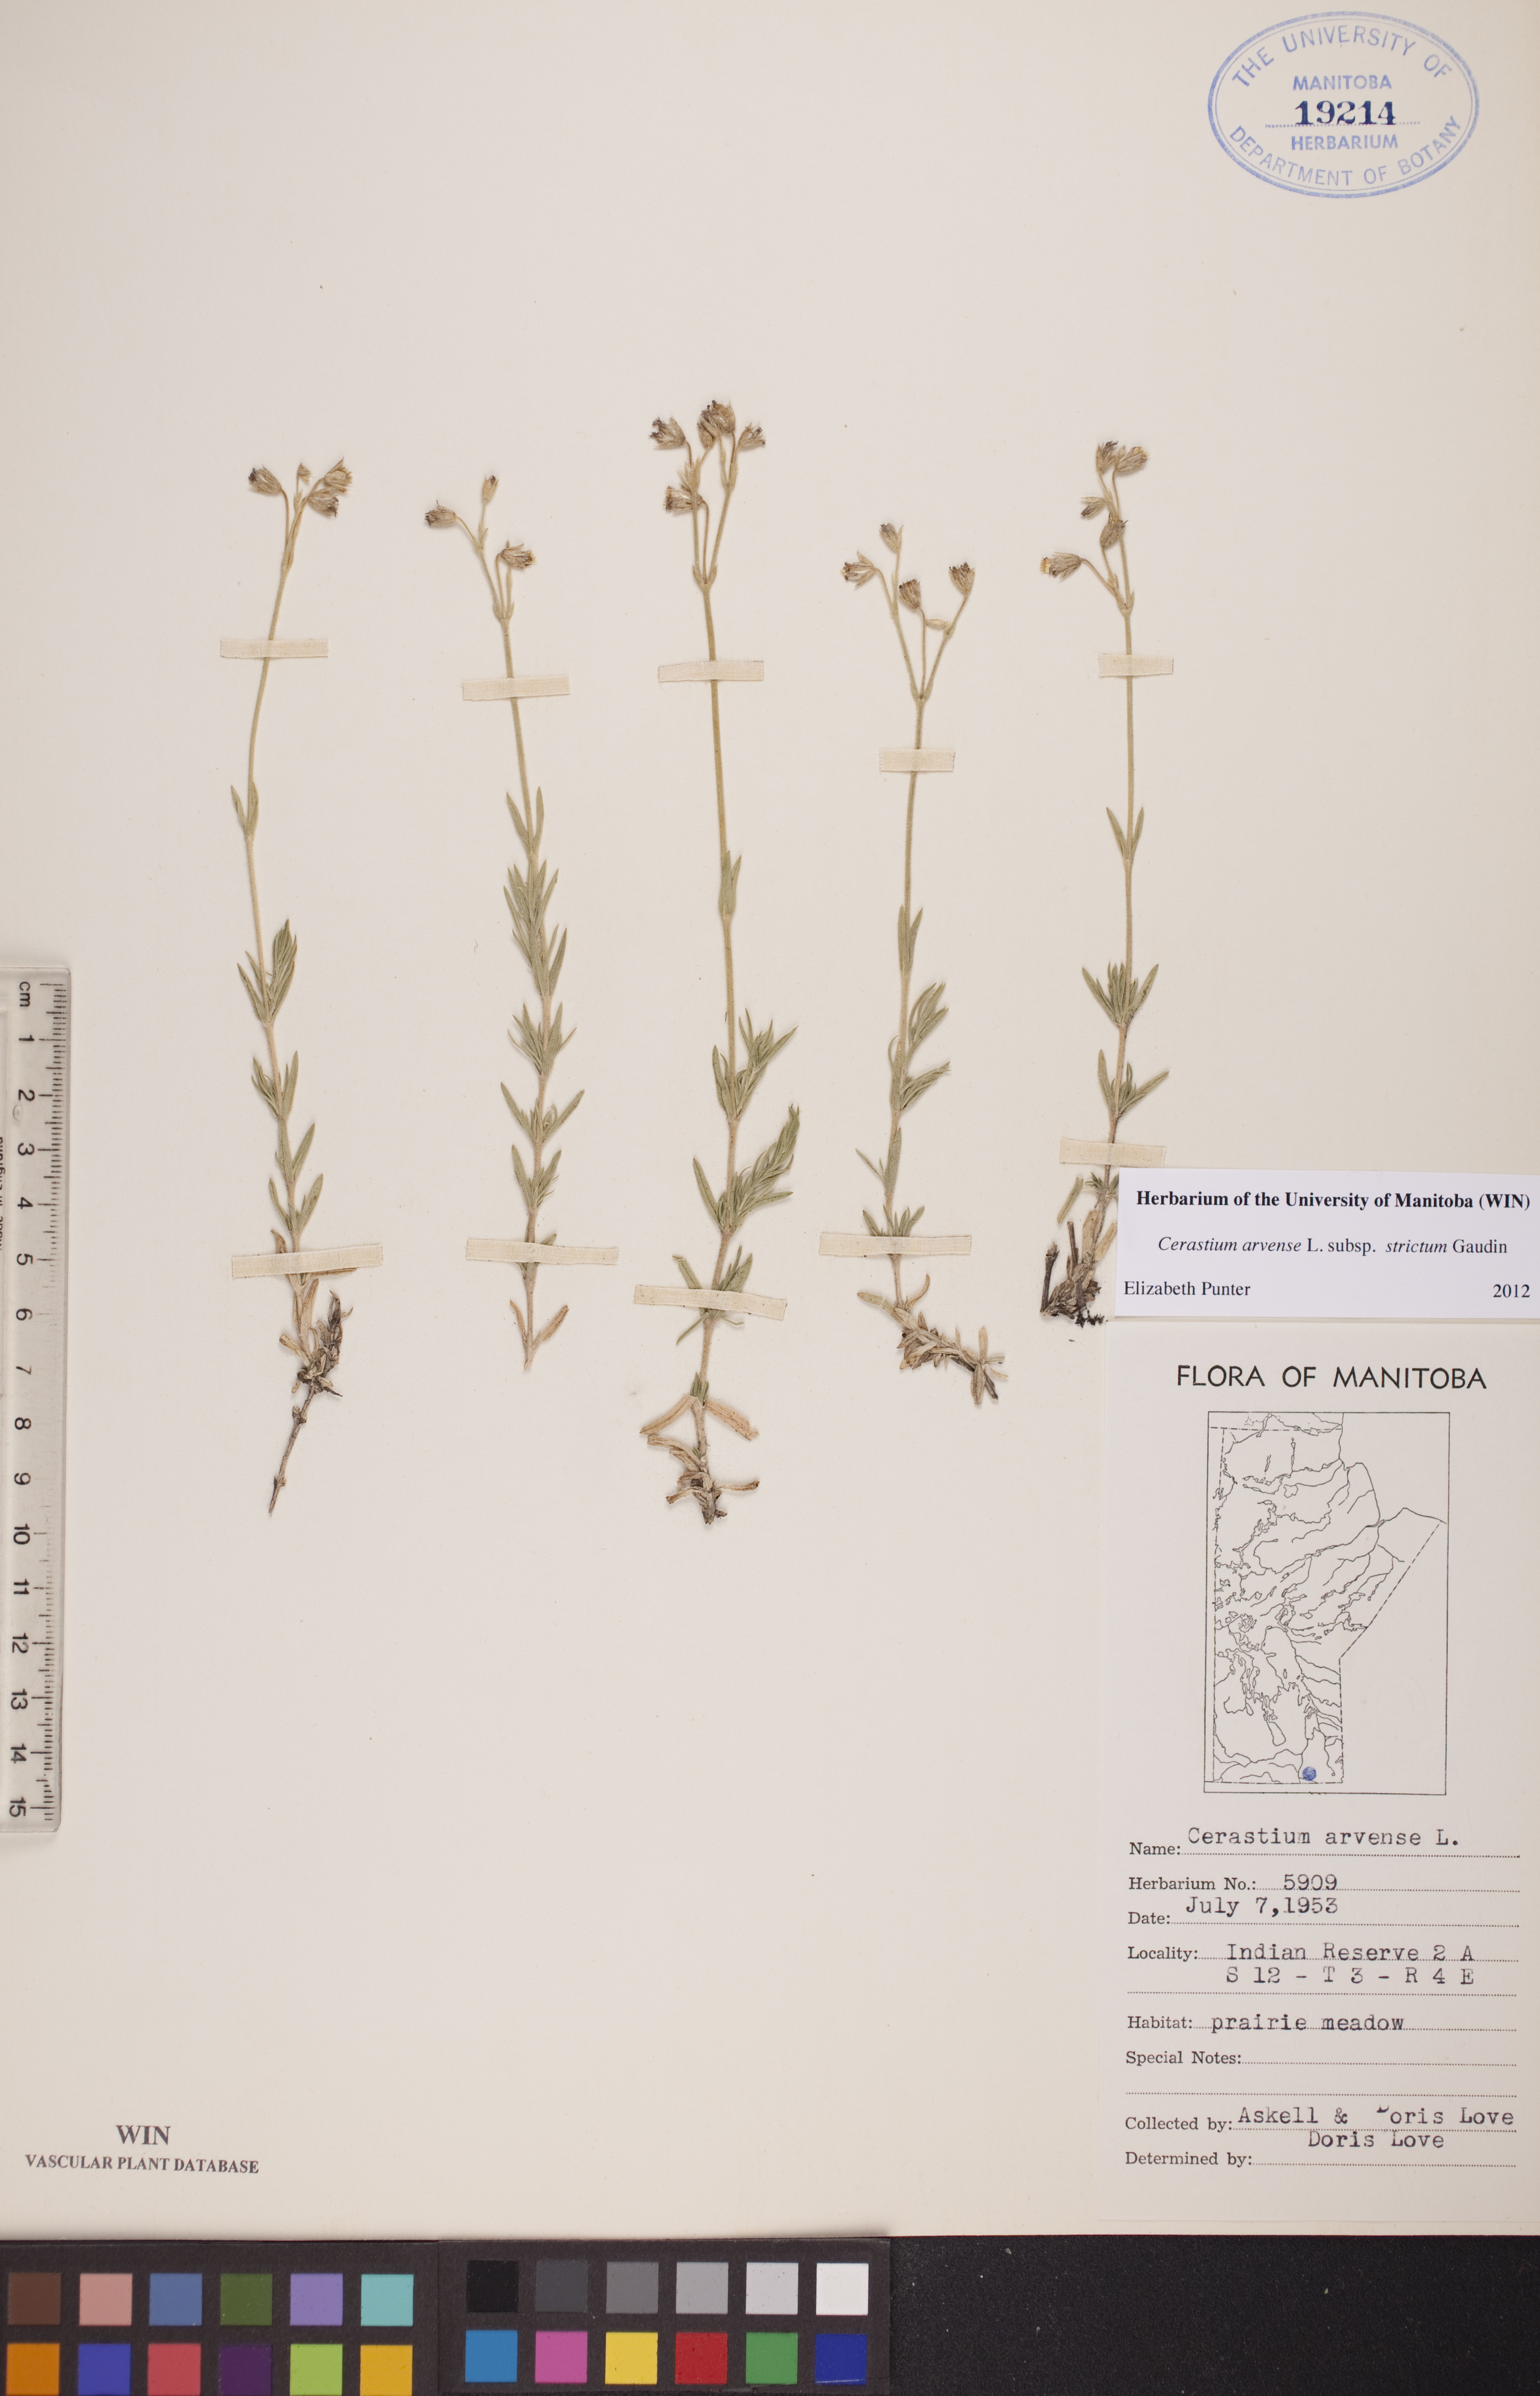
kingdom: Plantae
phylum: Tracheophyta
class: Magnoliopsida
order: Caryophyllales
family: Caryophyllaceae
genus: Cerastium
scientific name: Cerastium elongatum
